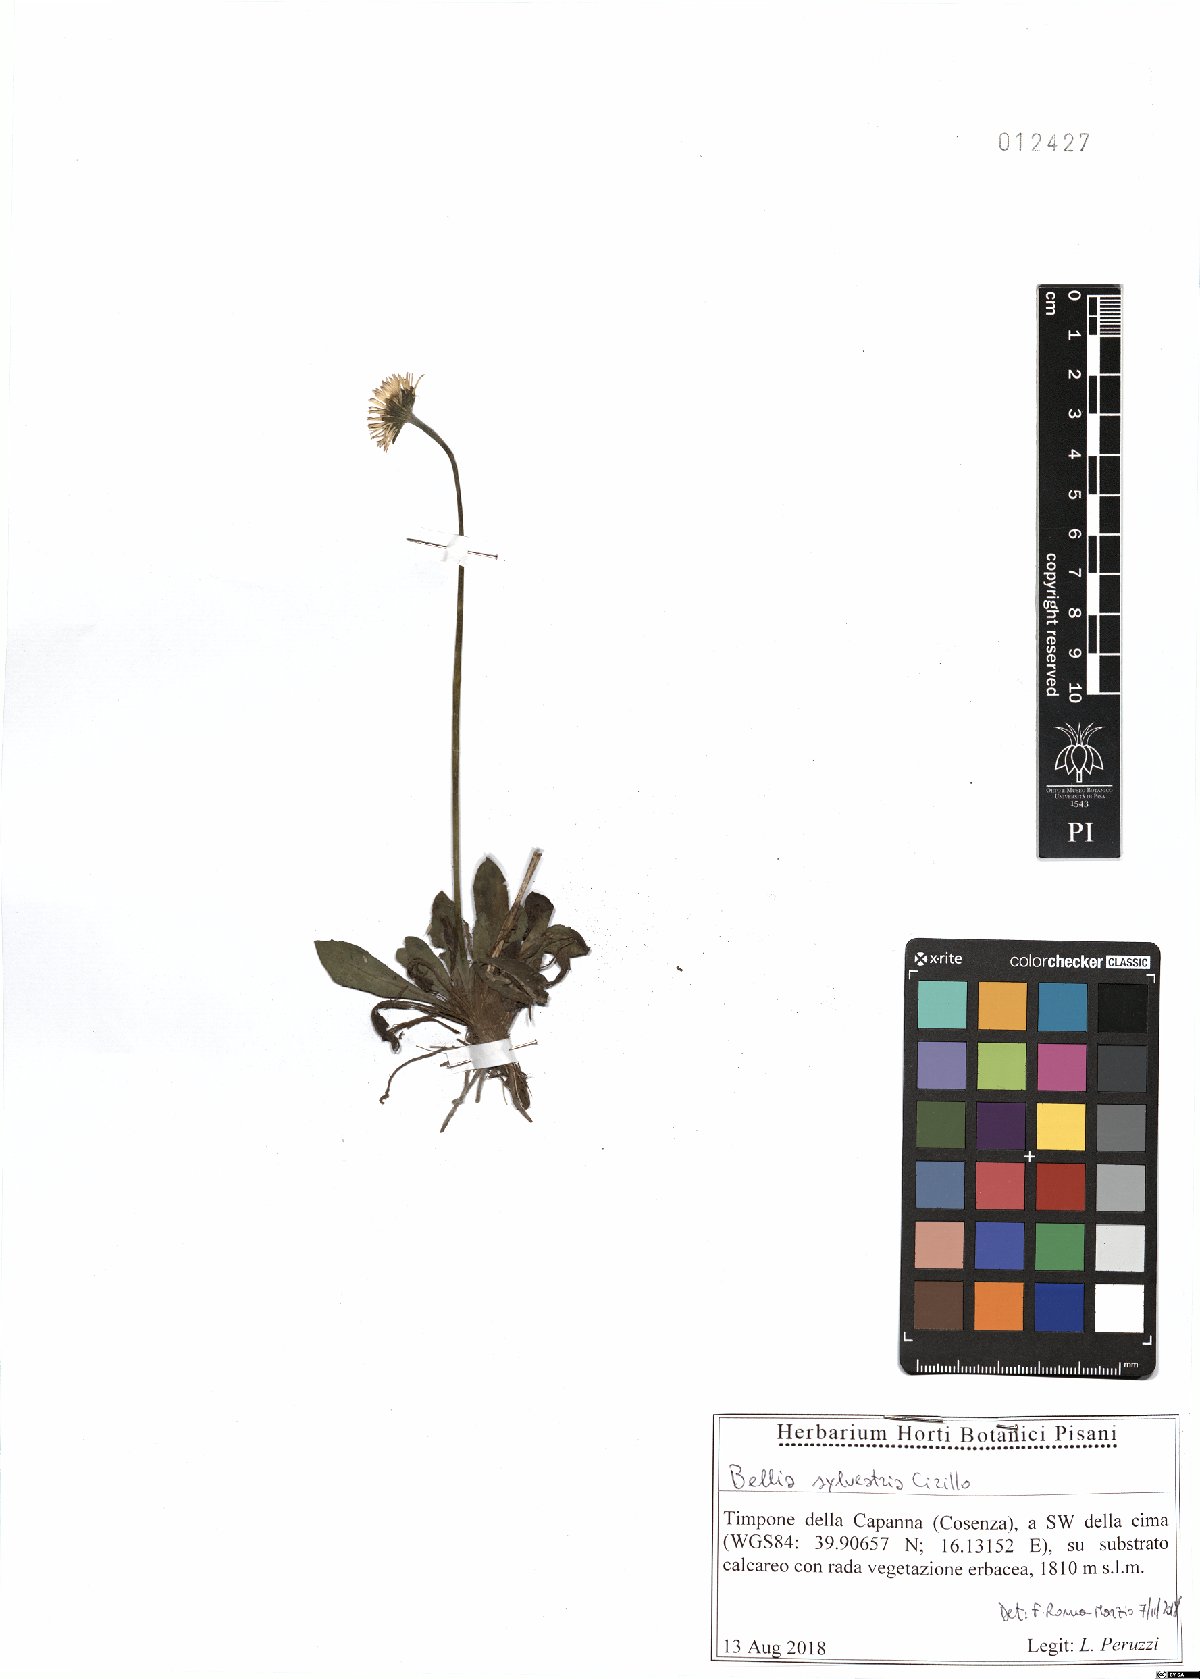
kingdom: Plantae
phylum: Tracheophyta
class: Magnoliopsida
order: Asterales
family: Asteraceae
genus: Bellis
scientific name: Bellis sylvestris
